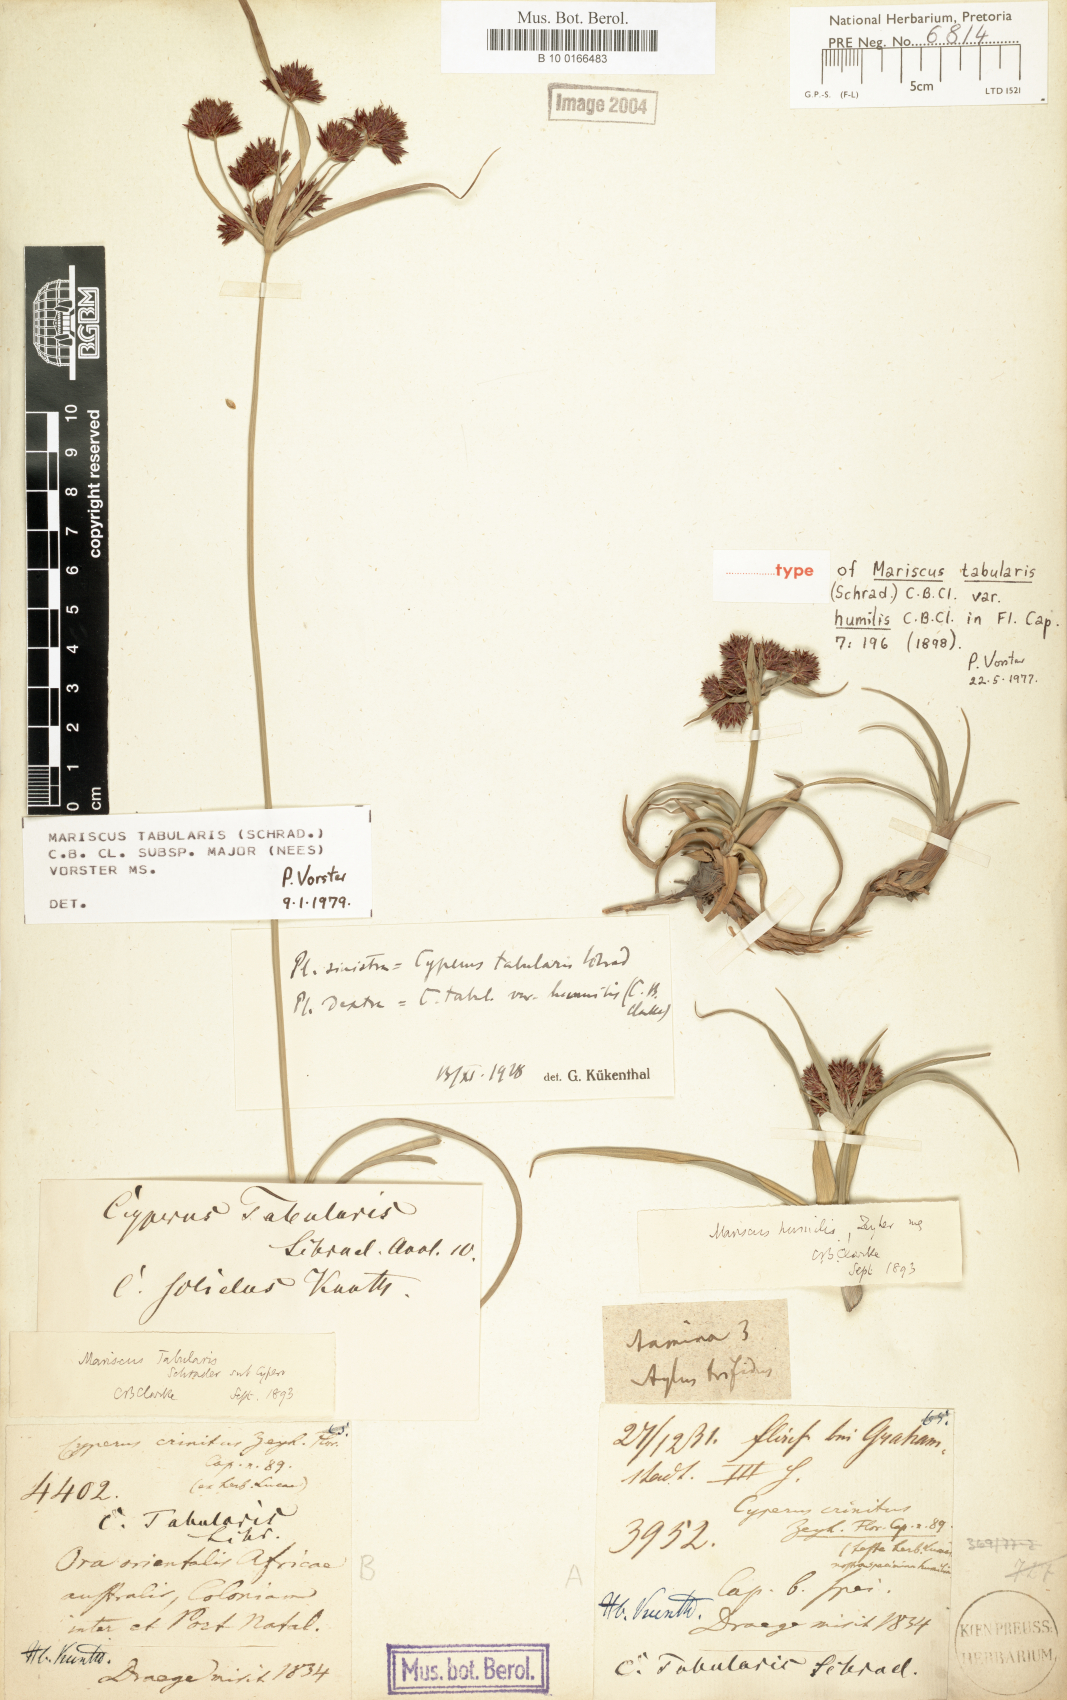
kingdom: Plantae
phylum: Tracheophyta
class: Liliopsida
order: Poales
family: Cyperaceae
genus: Cyperus
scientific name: Cyperus dactyliformis
